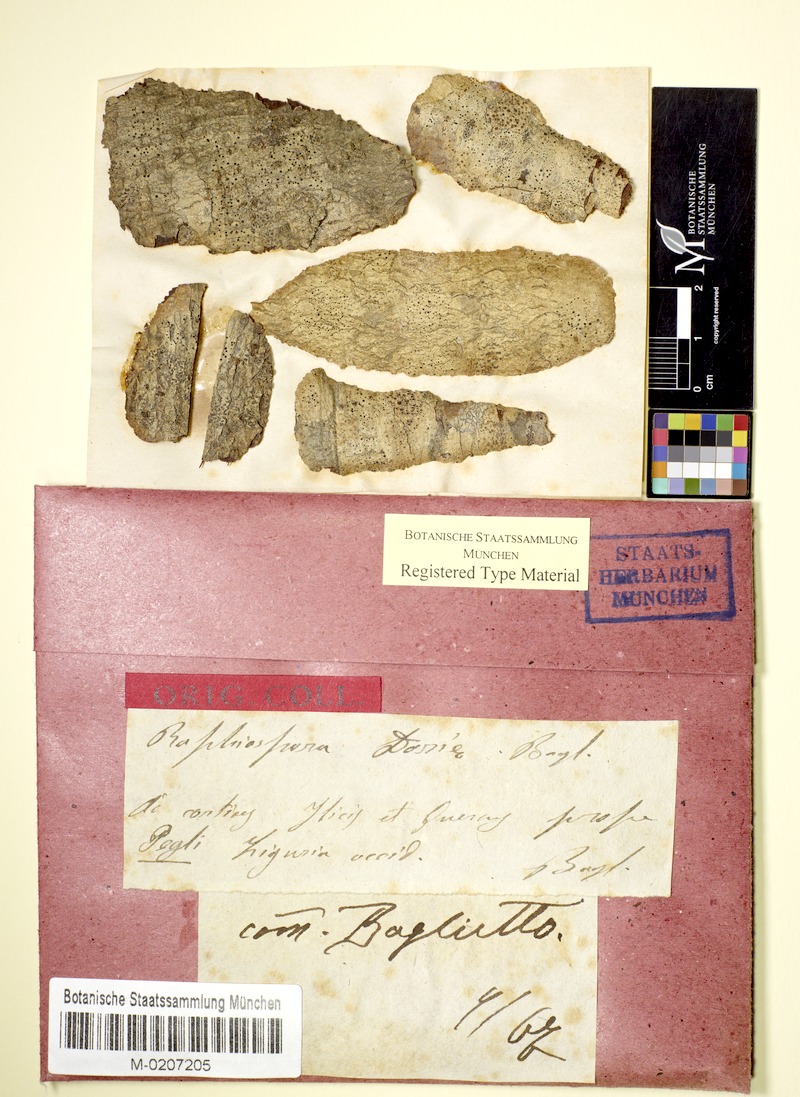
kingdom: Fungi
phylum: Ascomycota
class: Arthoniomycetes
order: Arthoniales
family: Roccellaceae
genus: Bactrospora
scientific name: Bactrospora patellarioides
